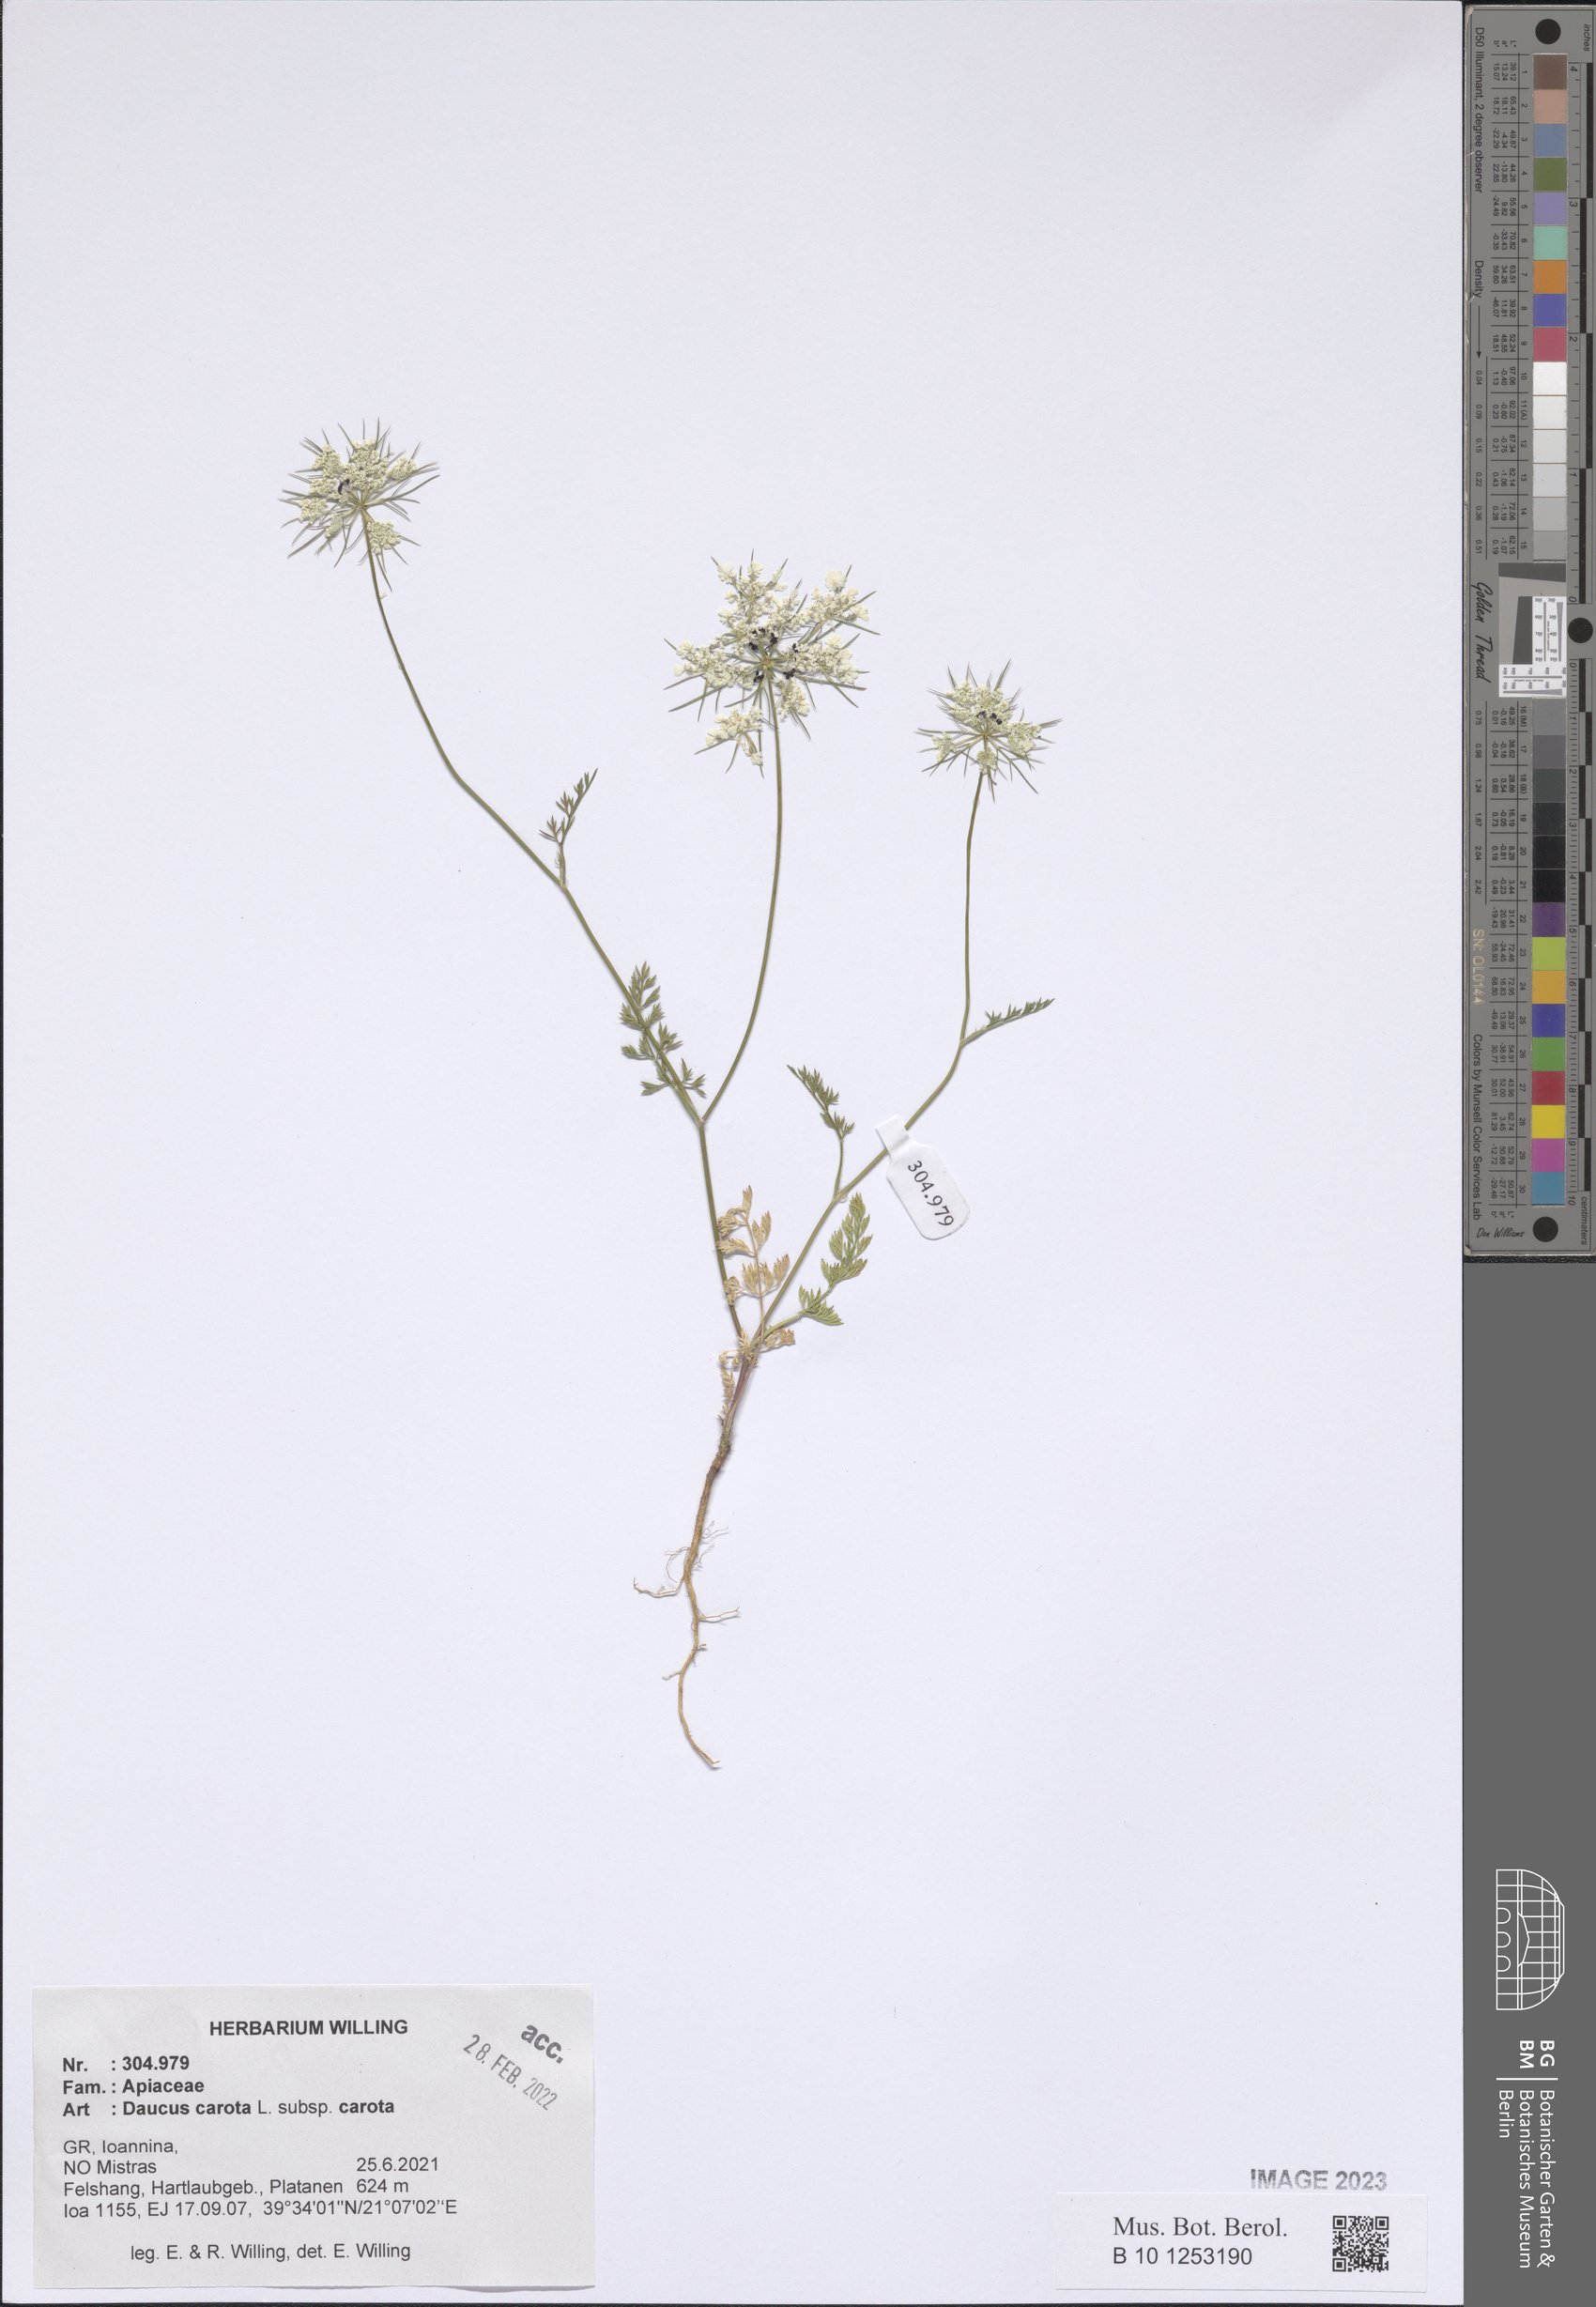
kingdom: Plantae
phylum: Tracheophyta
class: Magnoliopsida
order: Apiales
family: Apiaceae
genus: Daucus
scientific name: Daucus carota
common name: Wild carrot
